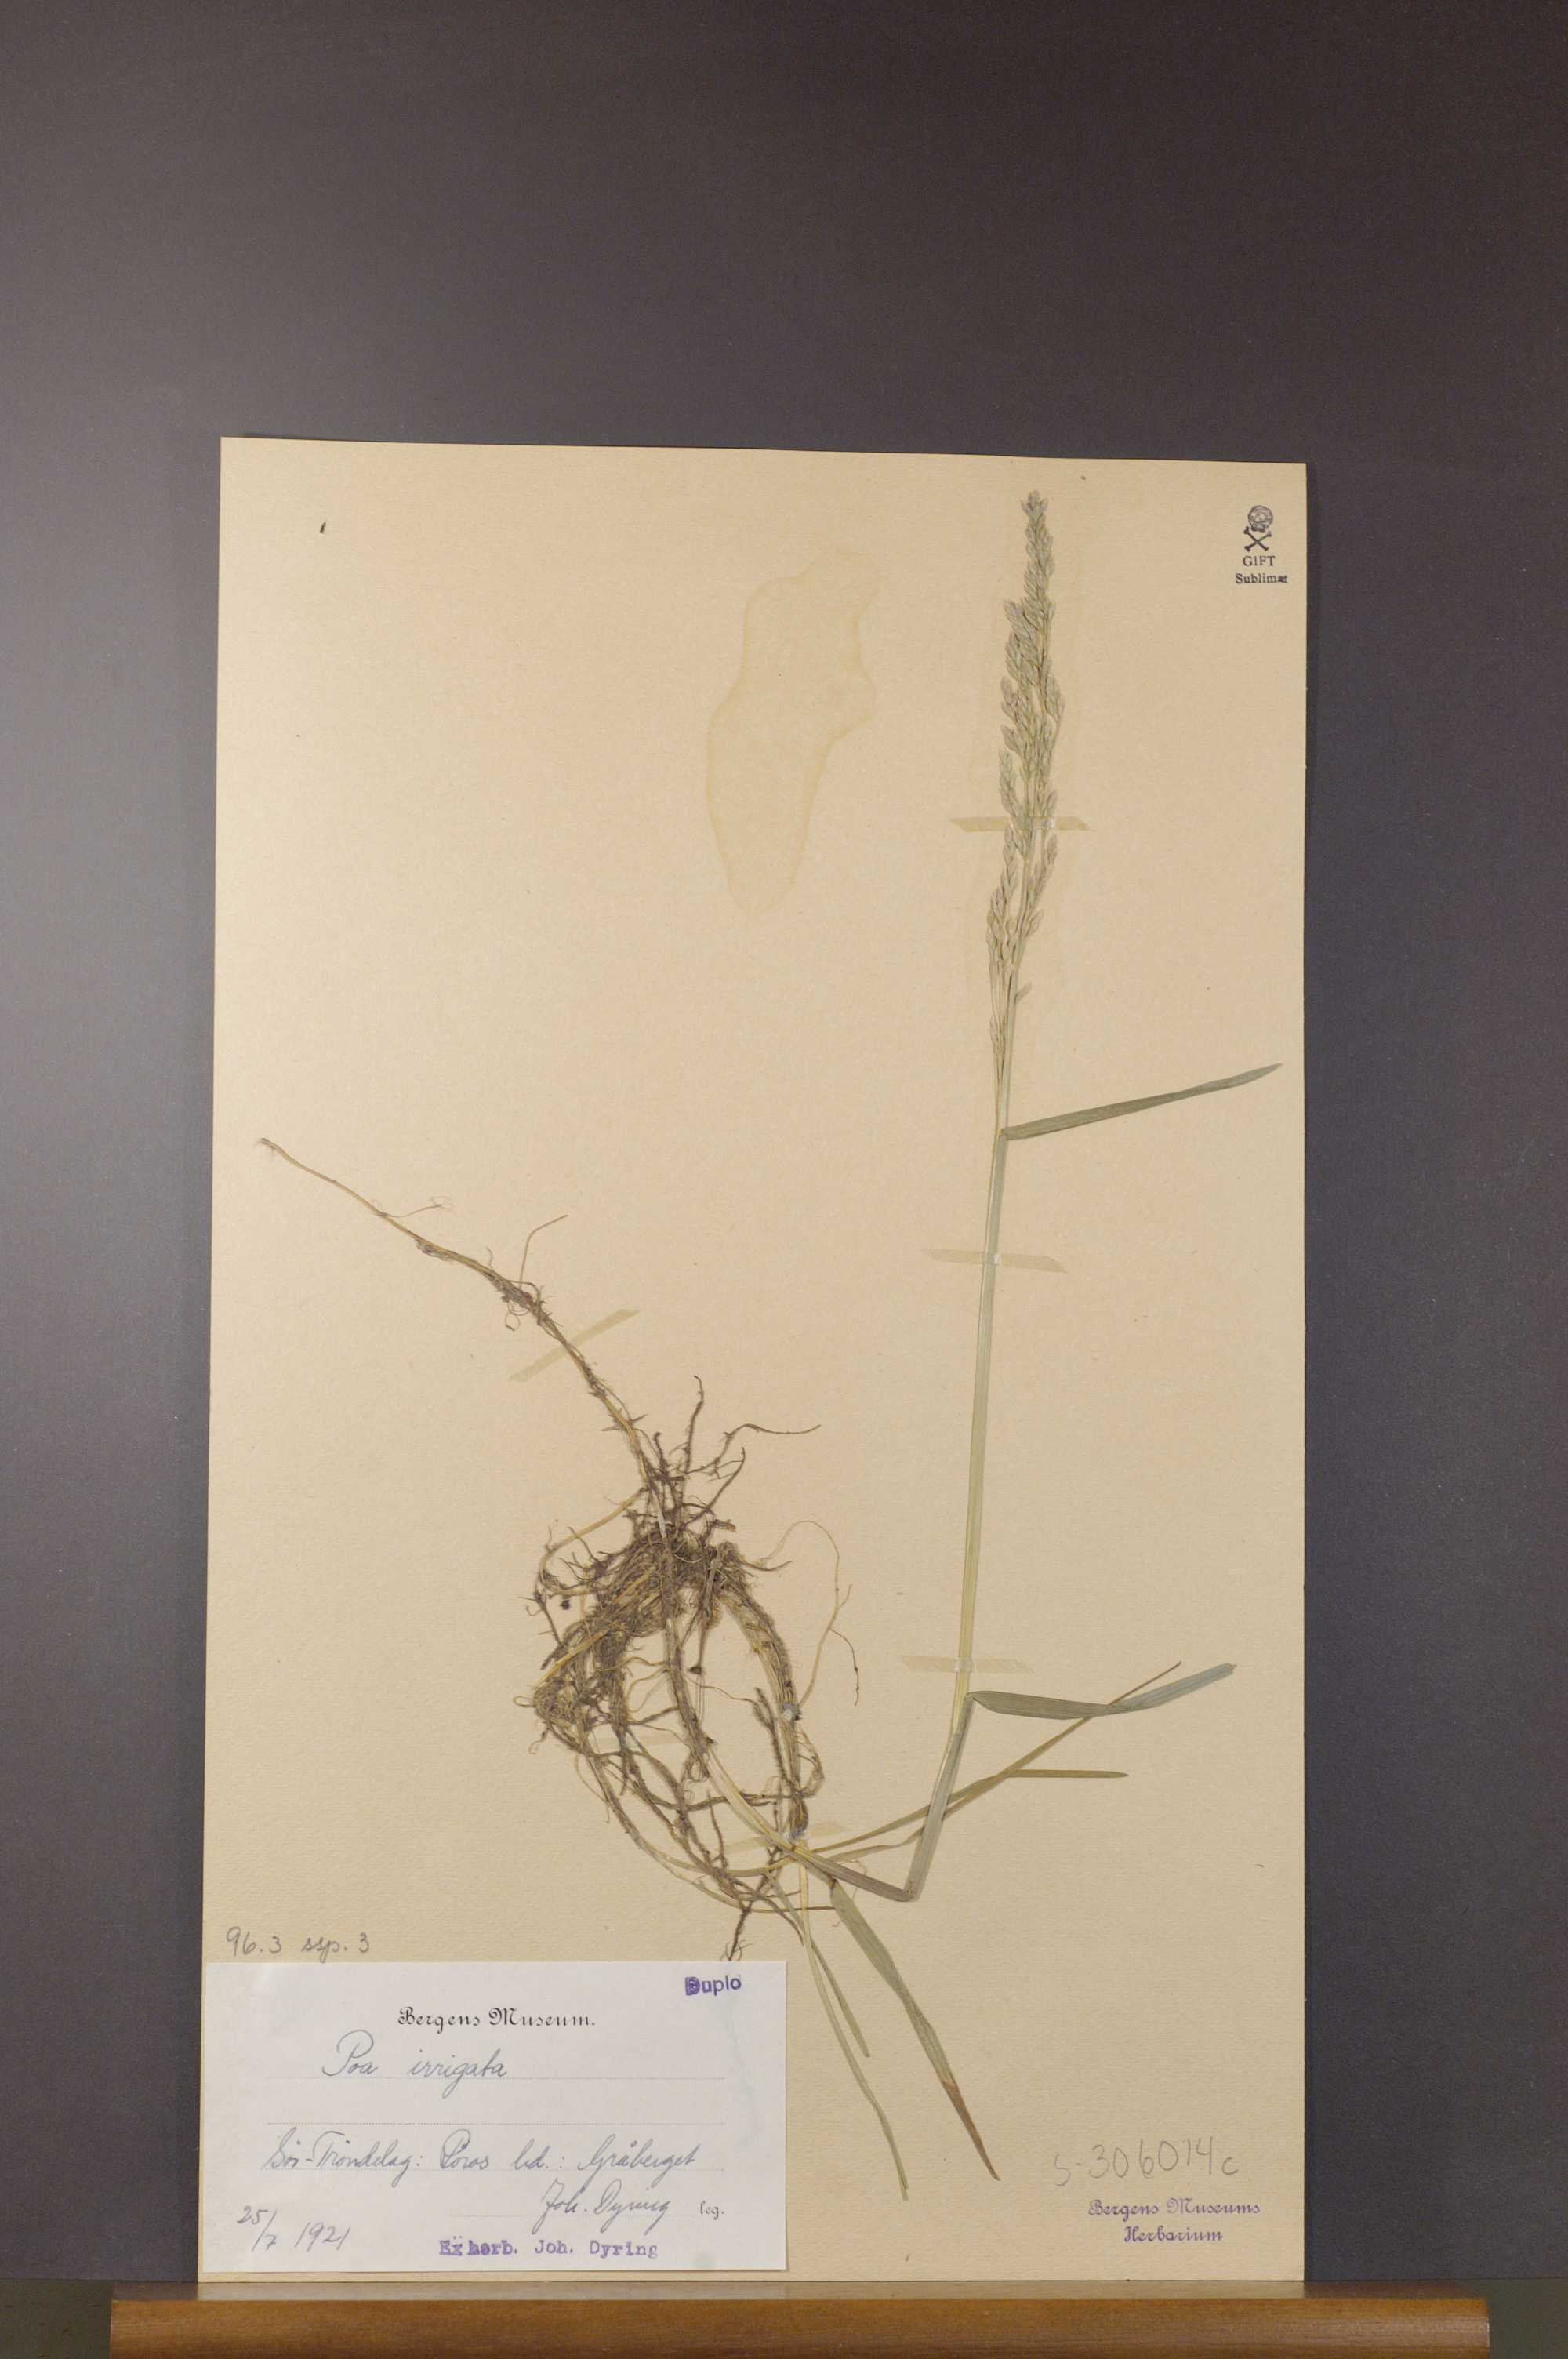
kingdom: Plantae
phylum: Tracheophyta
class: Liliopsida
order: Poales
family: Poaceae
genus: Poa
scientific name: Poa humilis
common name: Spreading meadow-grass
